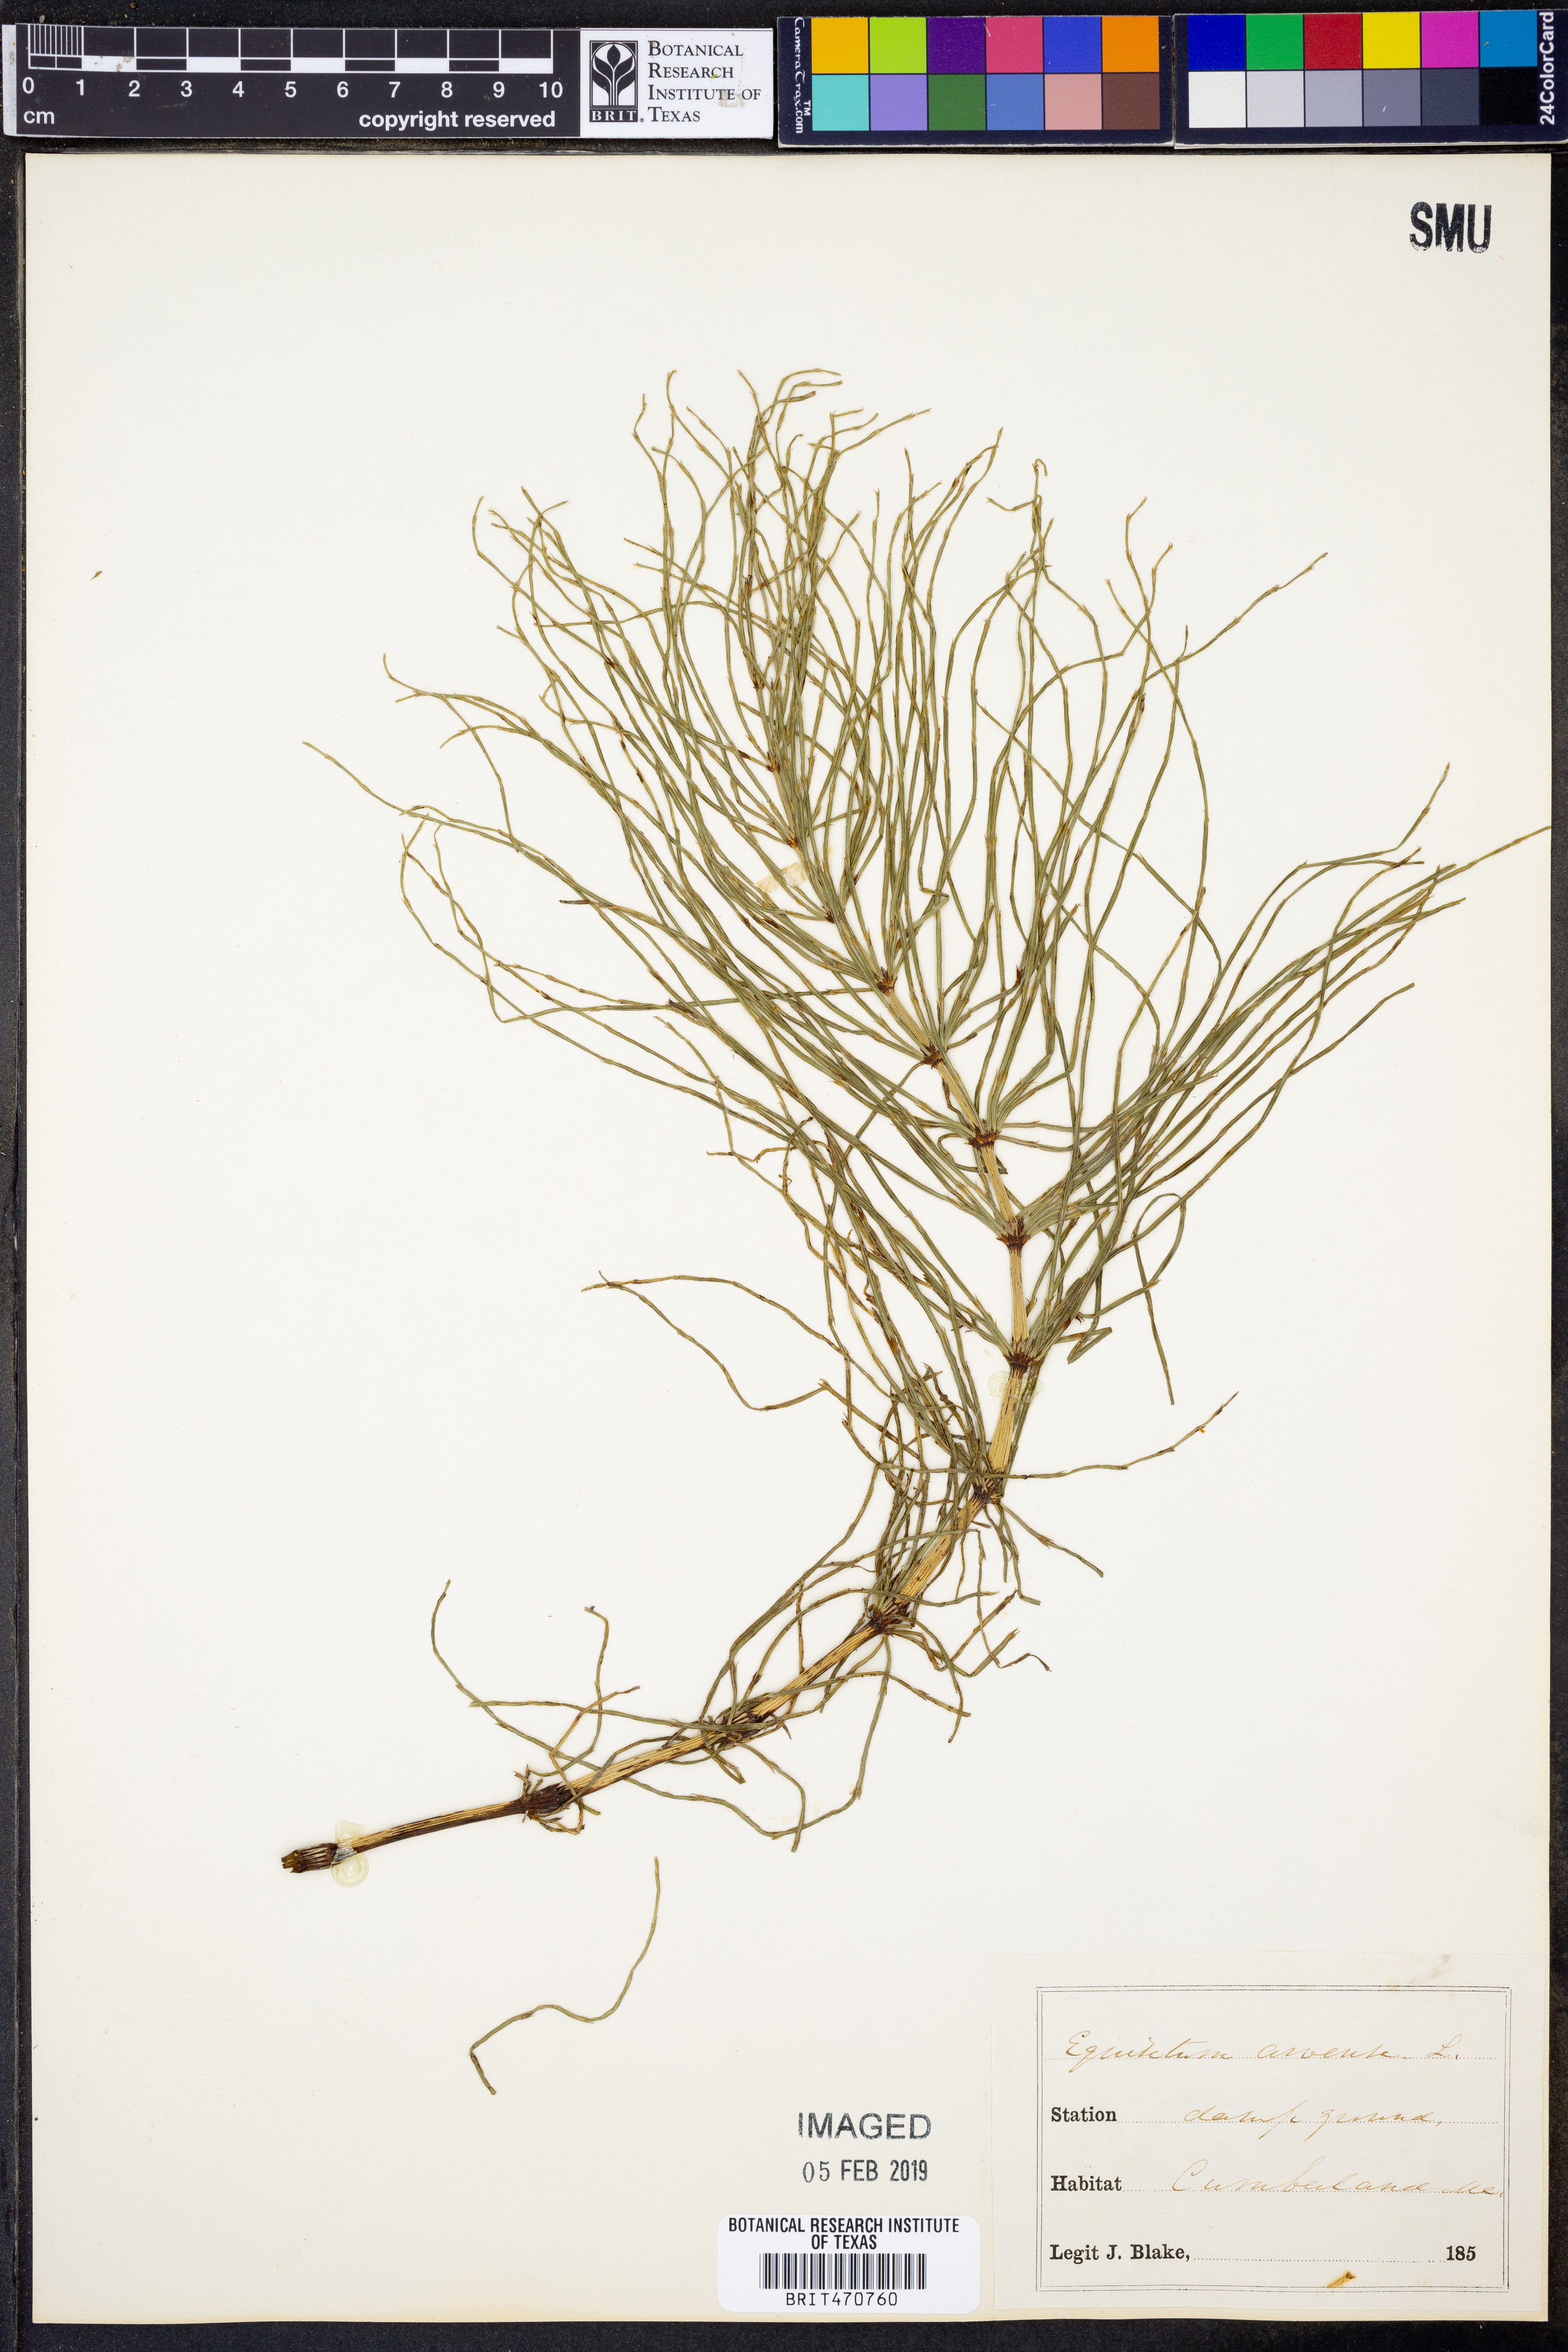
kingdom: Plantae
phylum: Tracheophyta
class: Polypodiopsida
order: Equisetales
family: Equisetaceae
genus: Equisetum
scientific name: Equisetum arvense
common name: Field horsetail
